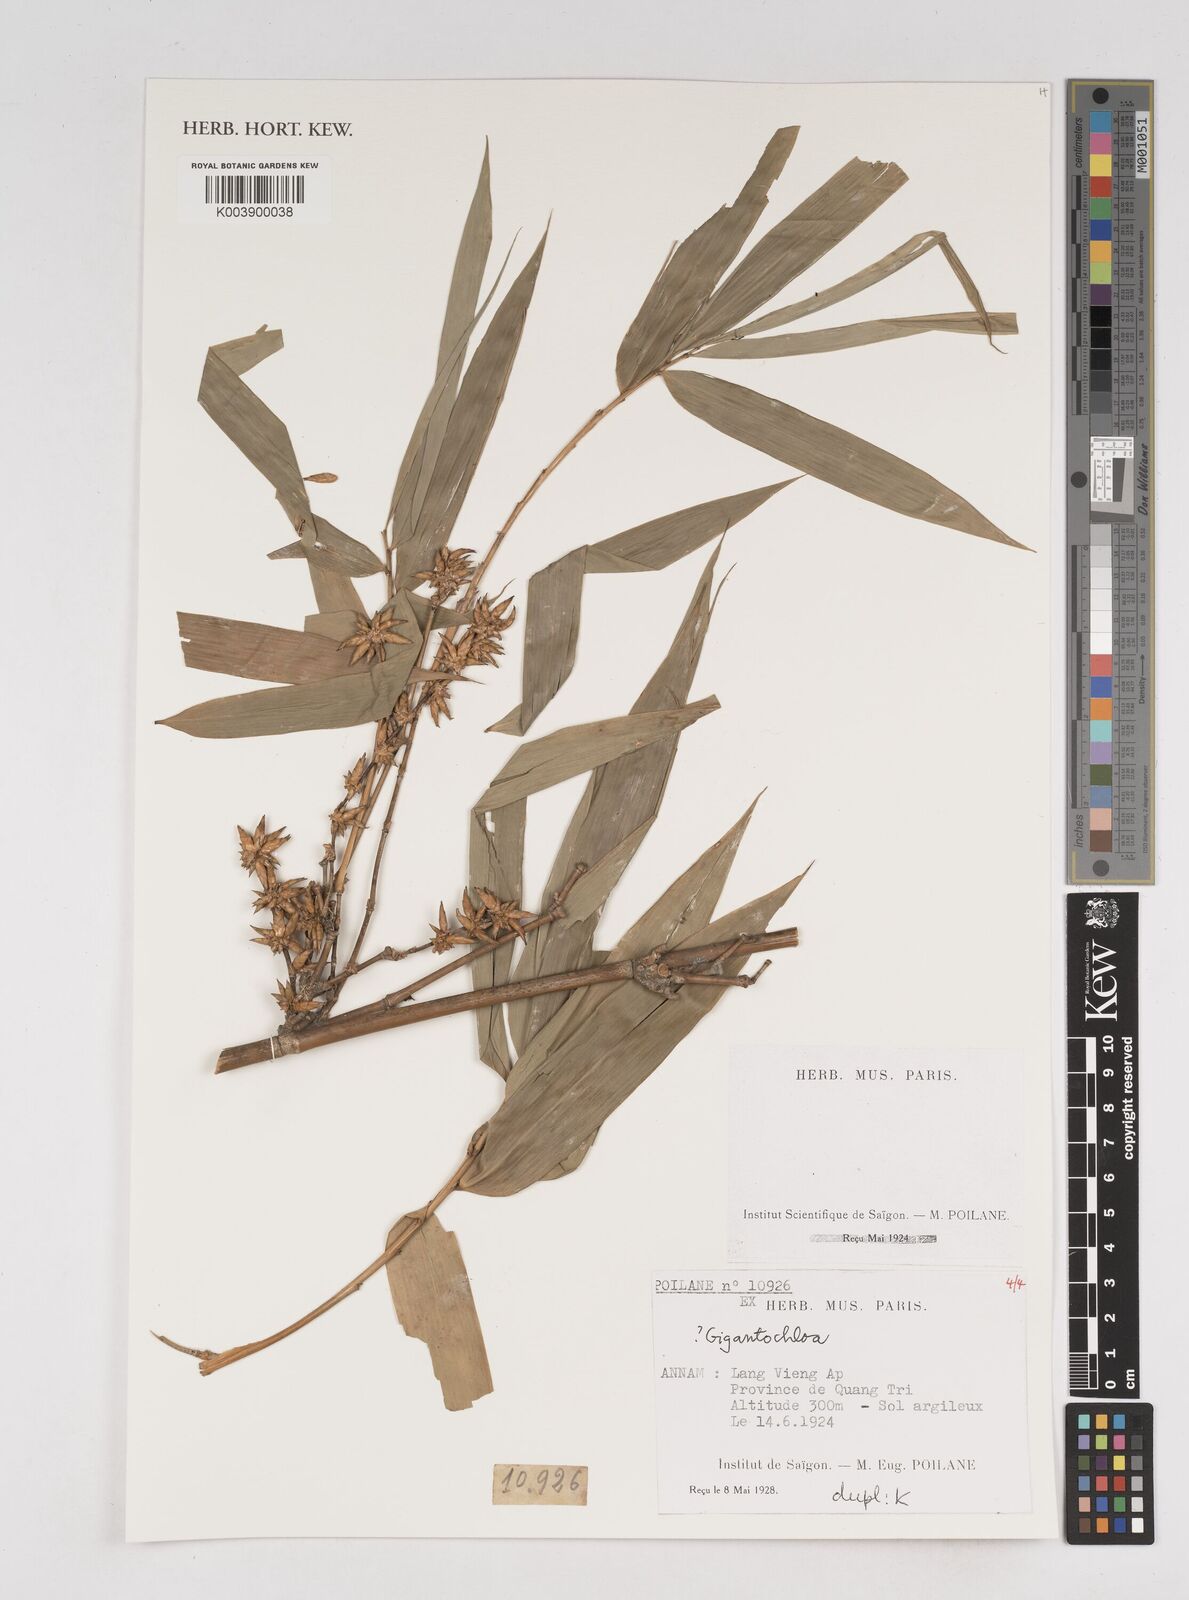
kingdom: Plantae
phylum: Tracheophyta
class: Liliopsida
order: Poales
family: Poaceae
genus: Gigantochloa
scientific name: Gigantochloa
